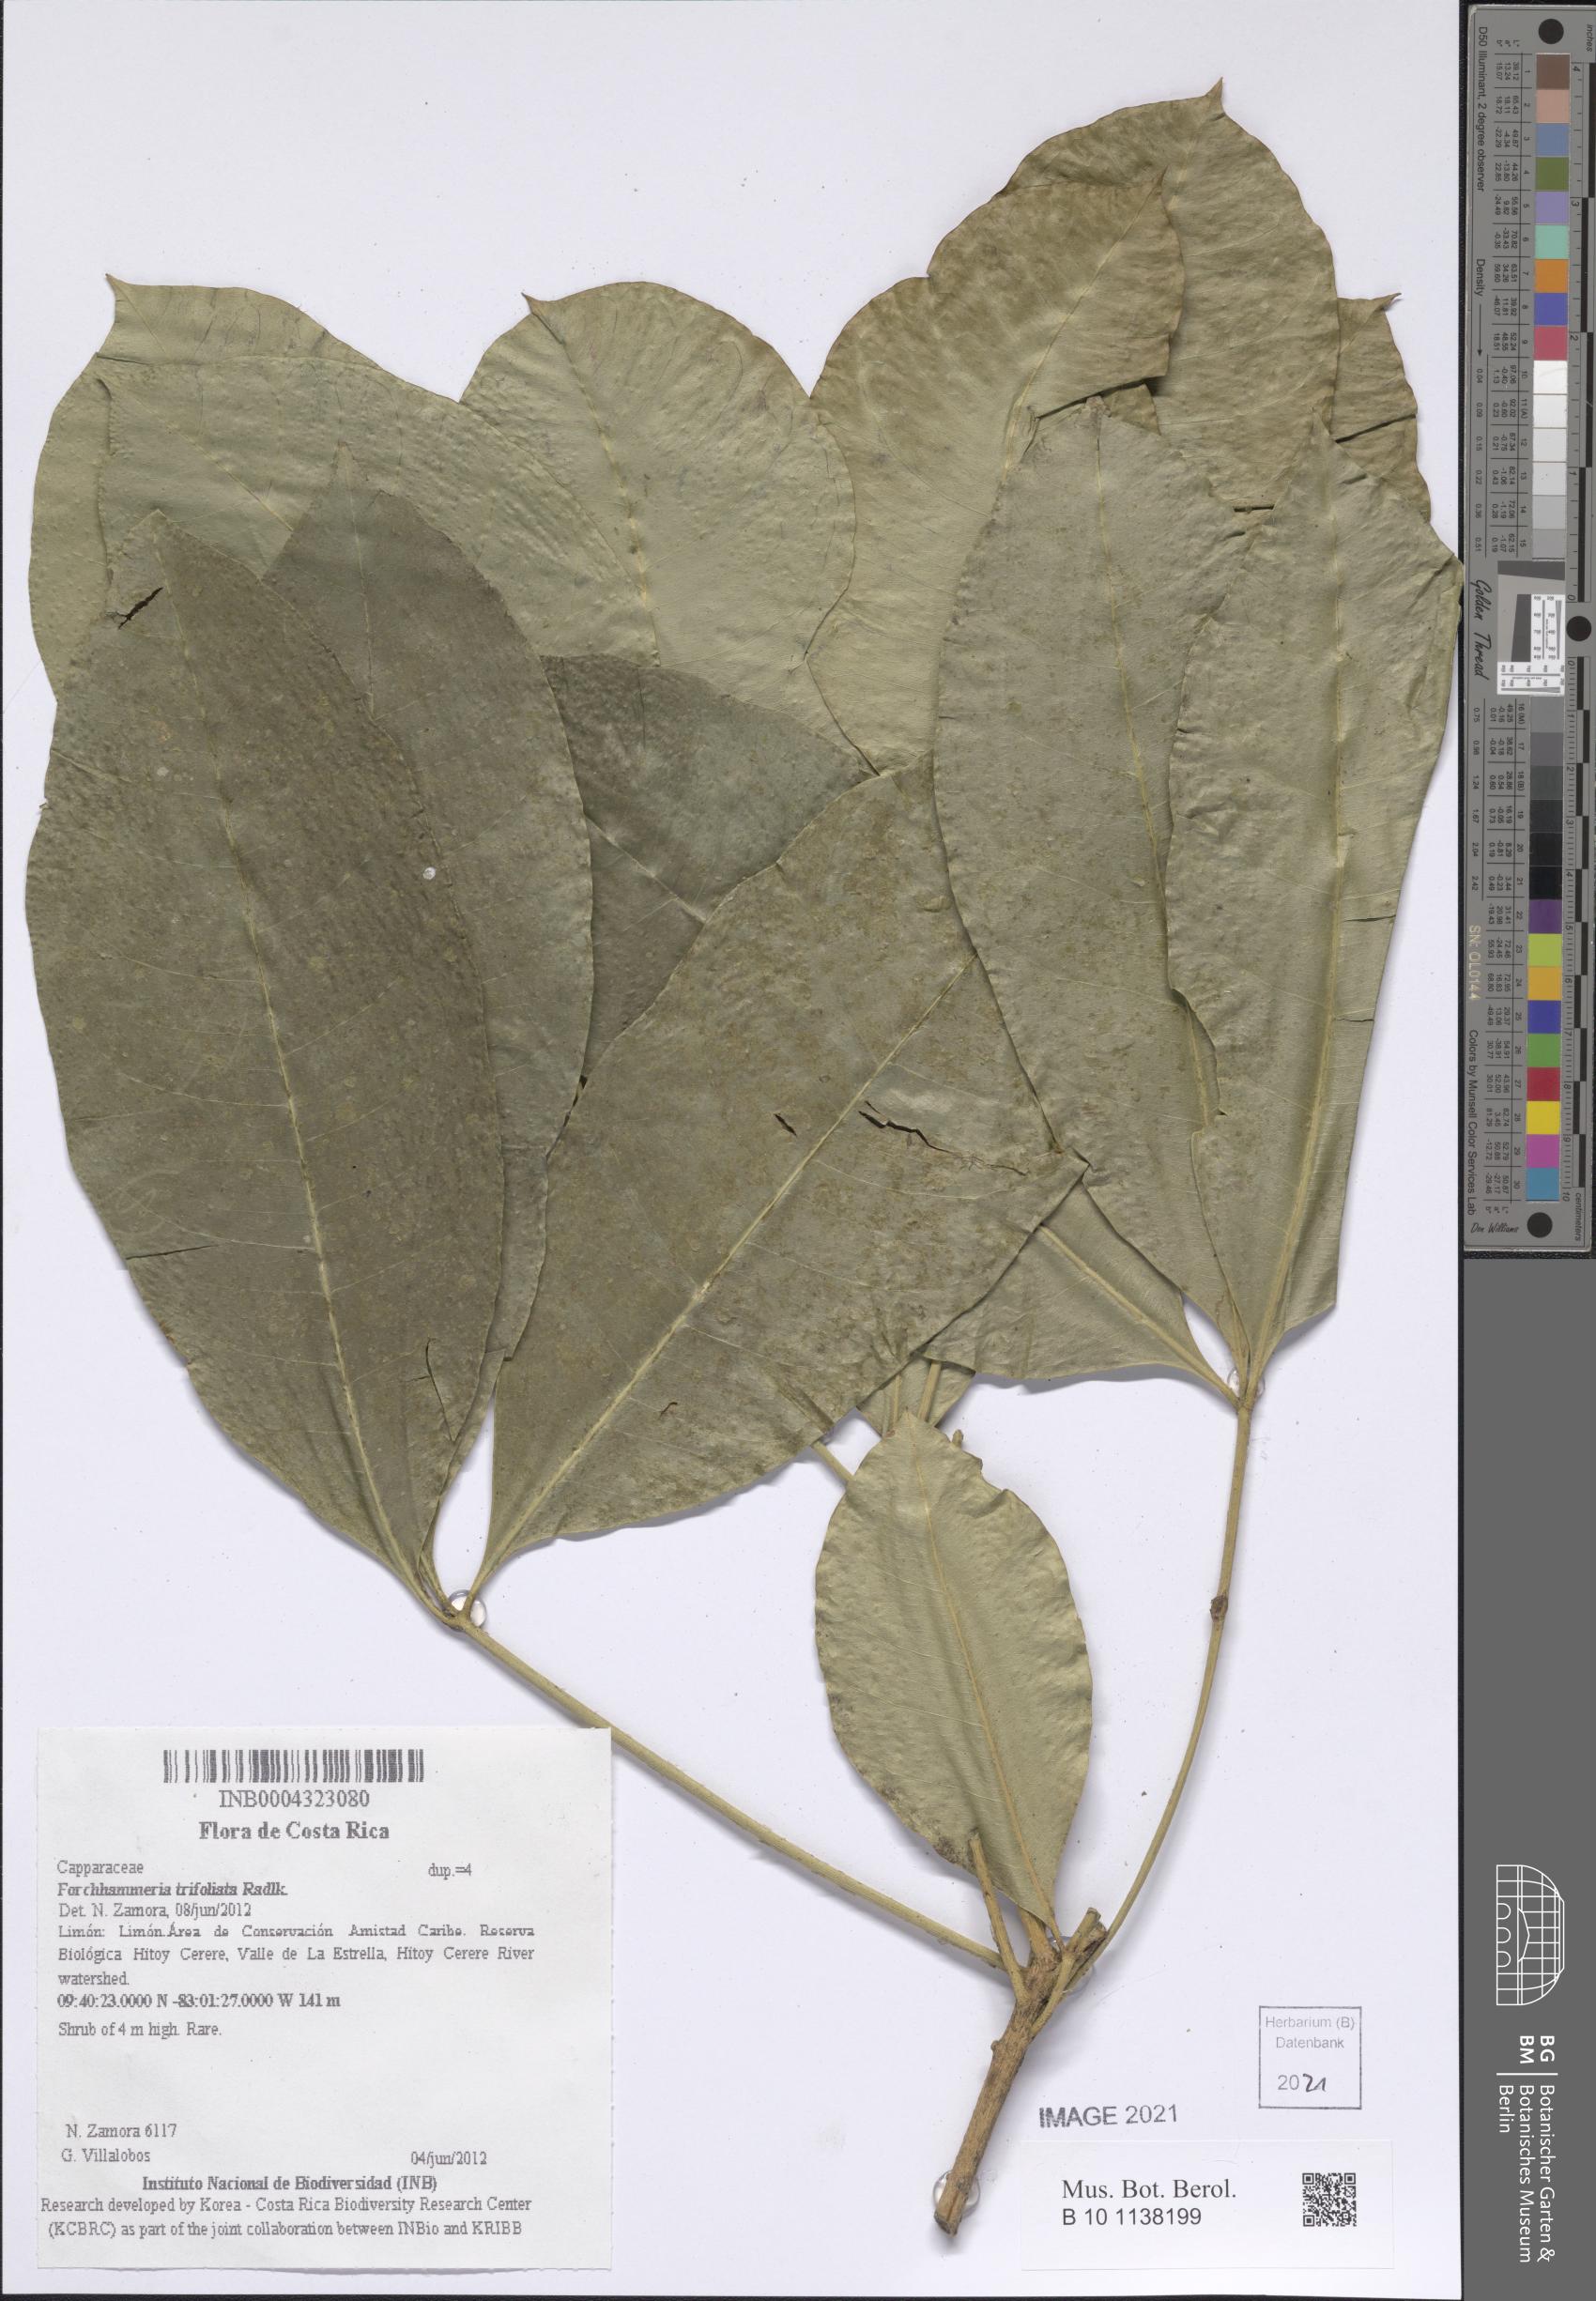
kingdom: Plantae
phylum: Tracheophyta
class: Magnoliopsida
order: Brassicales
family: Stixaceae
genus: Forchhammeria
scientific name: Forchhammeria trifoliata
